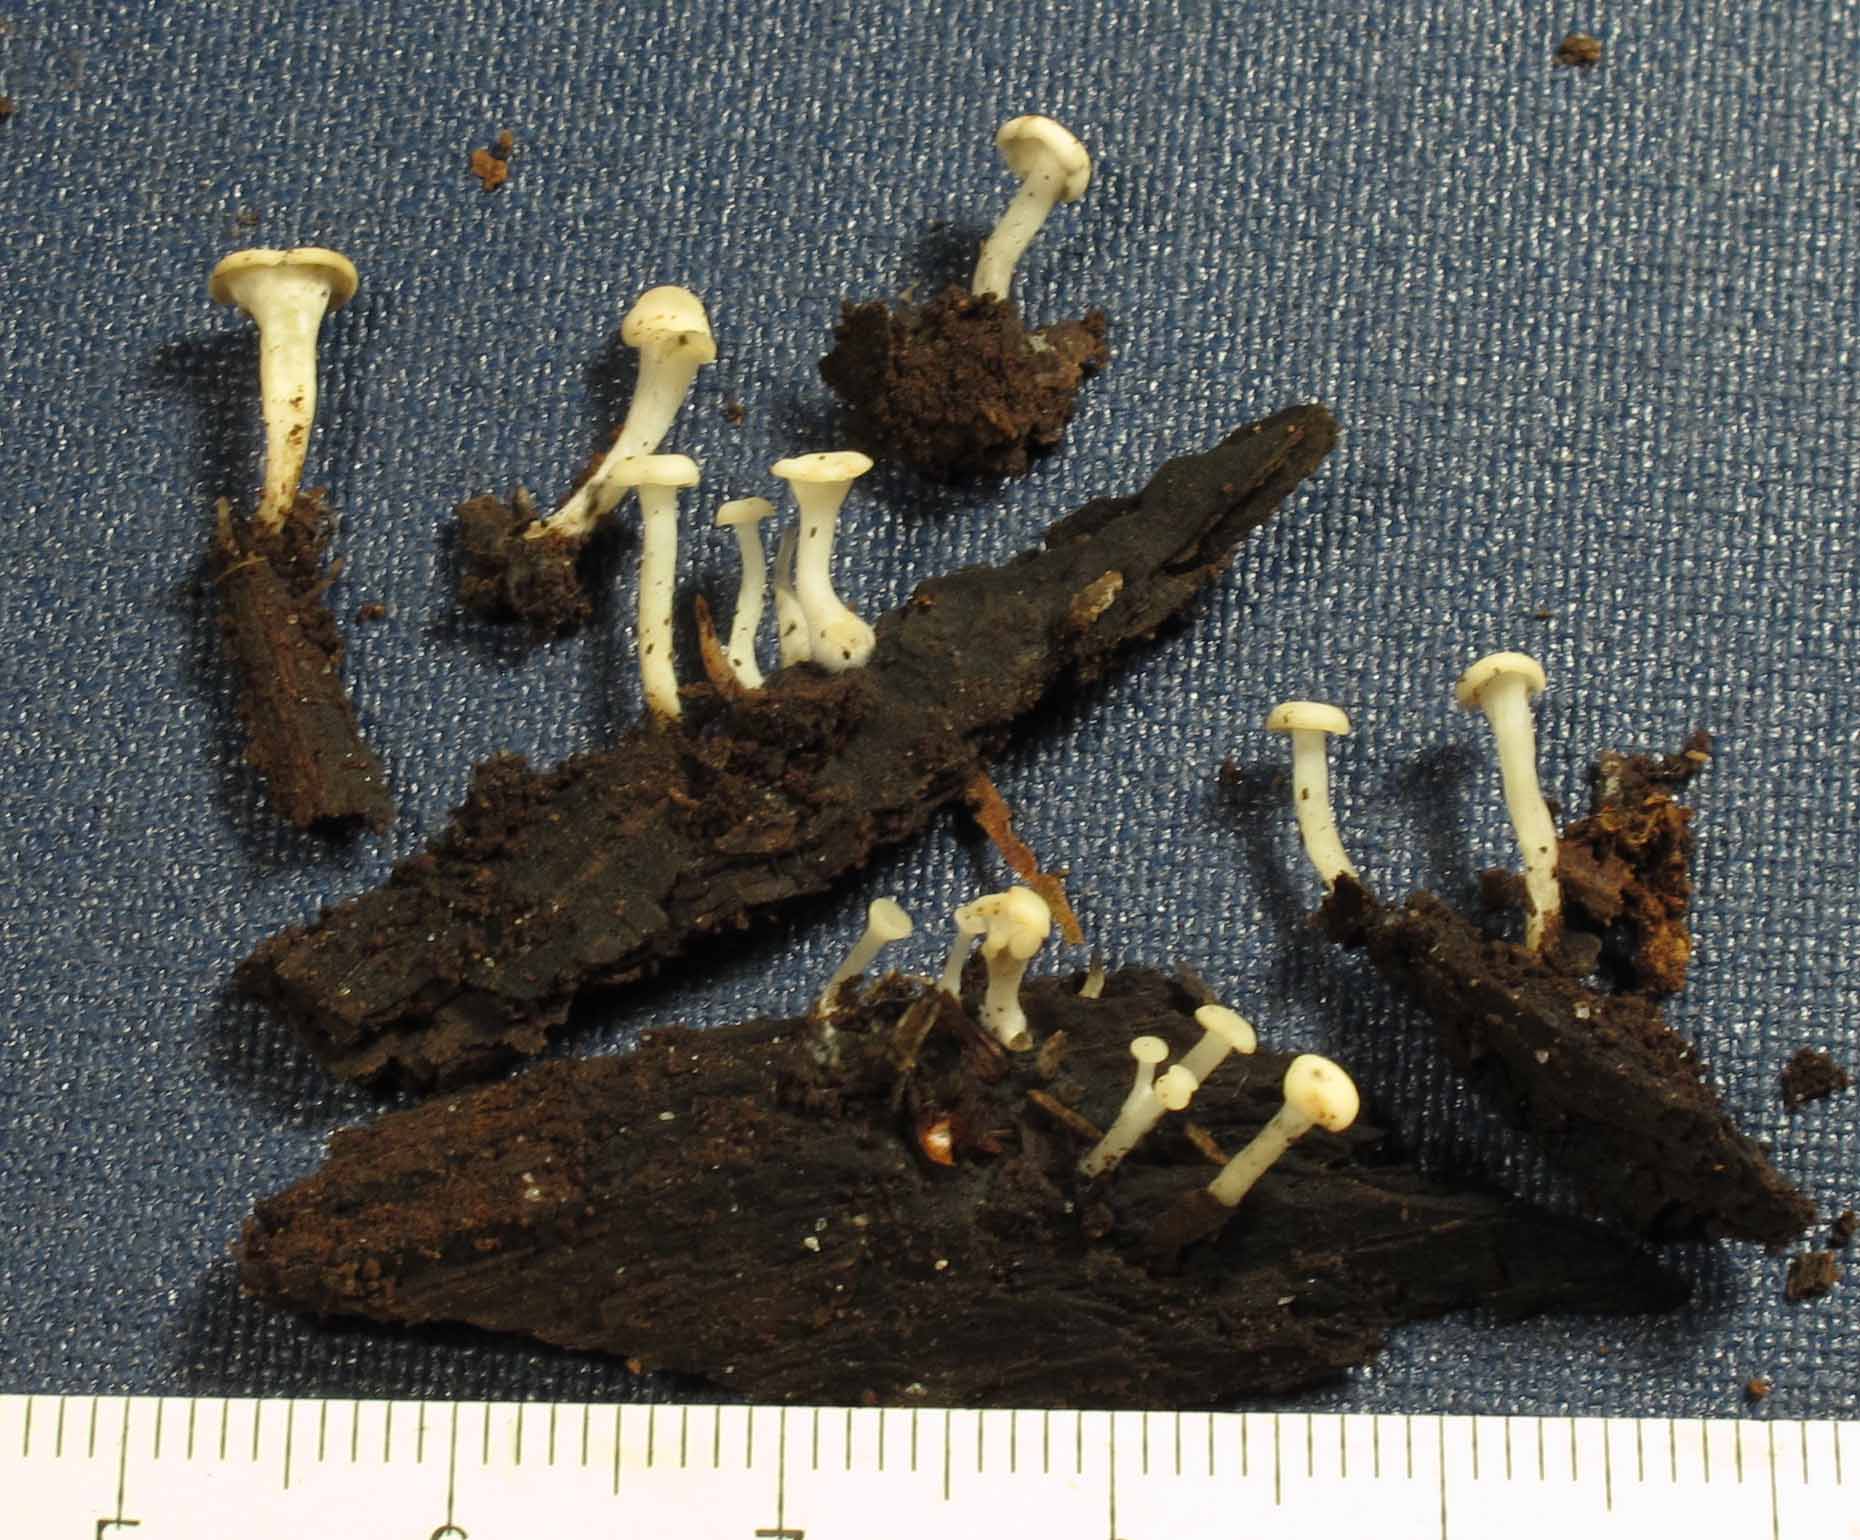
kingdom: Fungi
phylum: Ascomycota
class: Leotiomycetes
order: Helotiales
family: Tricladiaceae
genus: Cudoniella
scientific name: Cudoniella acicularis
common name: ege-dyndskive
